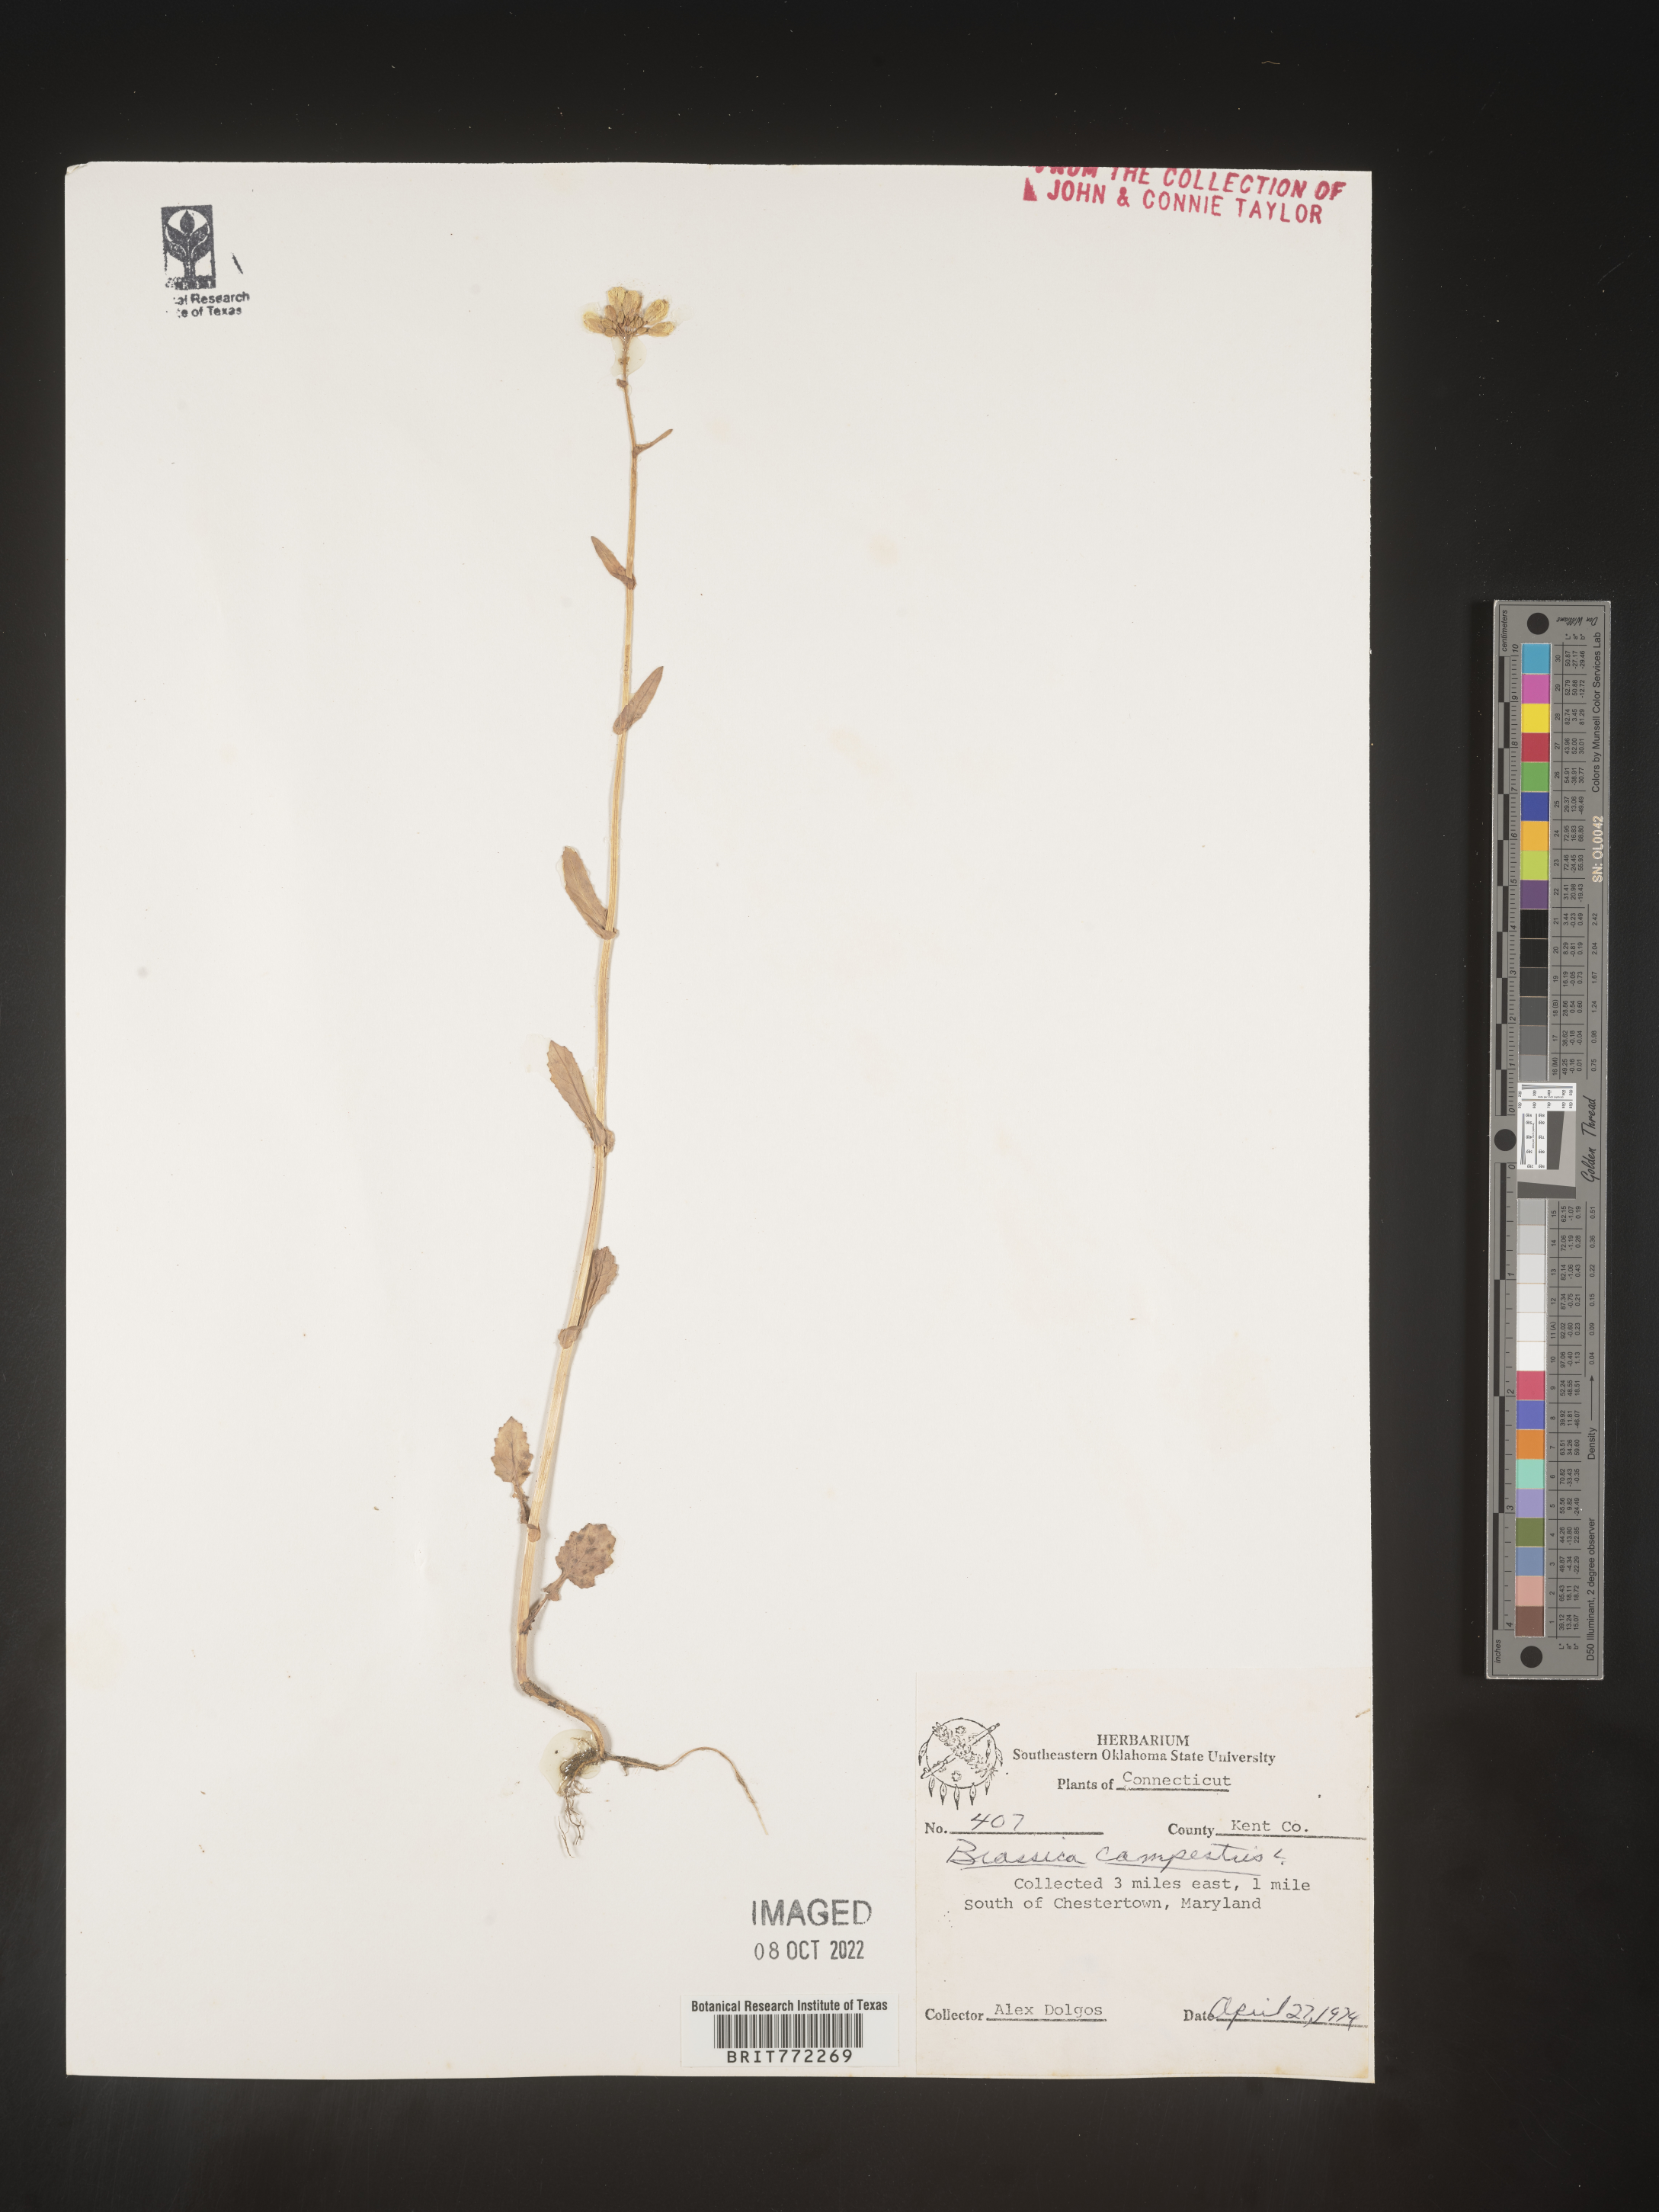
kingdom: Plantae
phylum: Tracheophyta
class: Magnoliopsida
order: Brassicales
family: Brassicaceae
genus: Brassica
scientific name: Brassica
